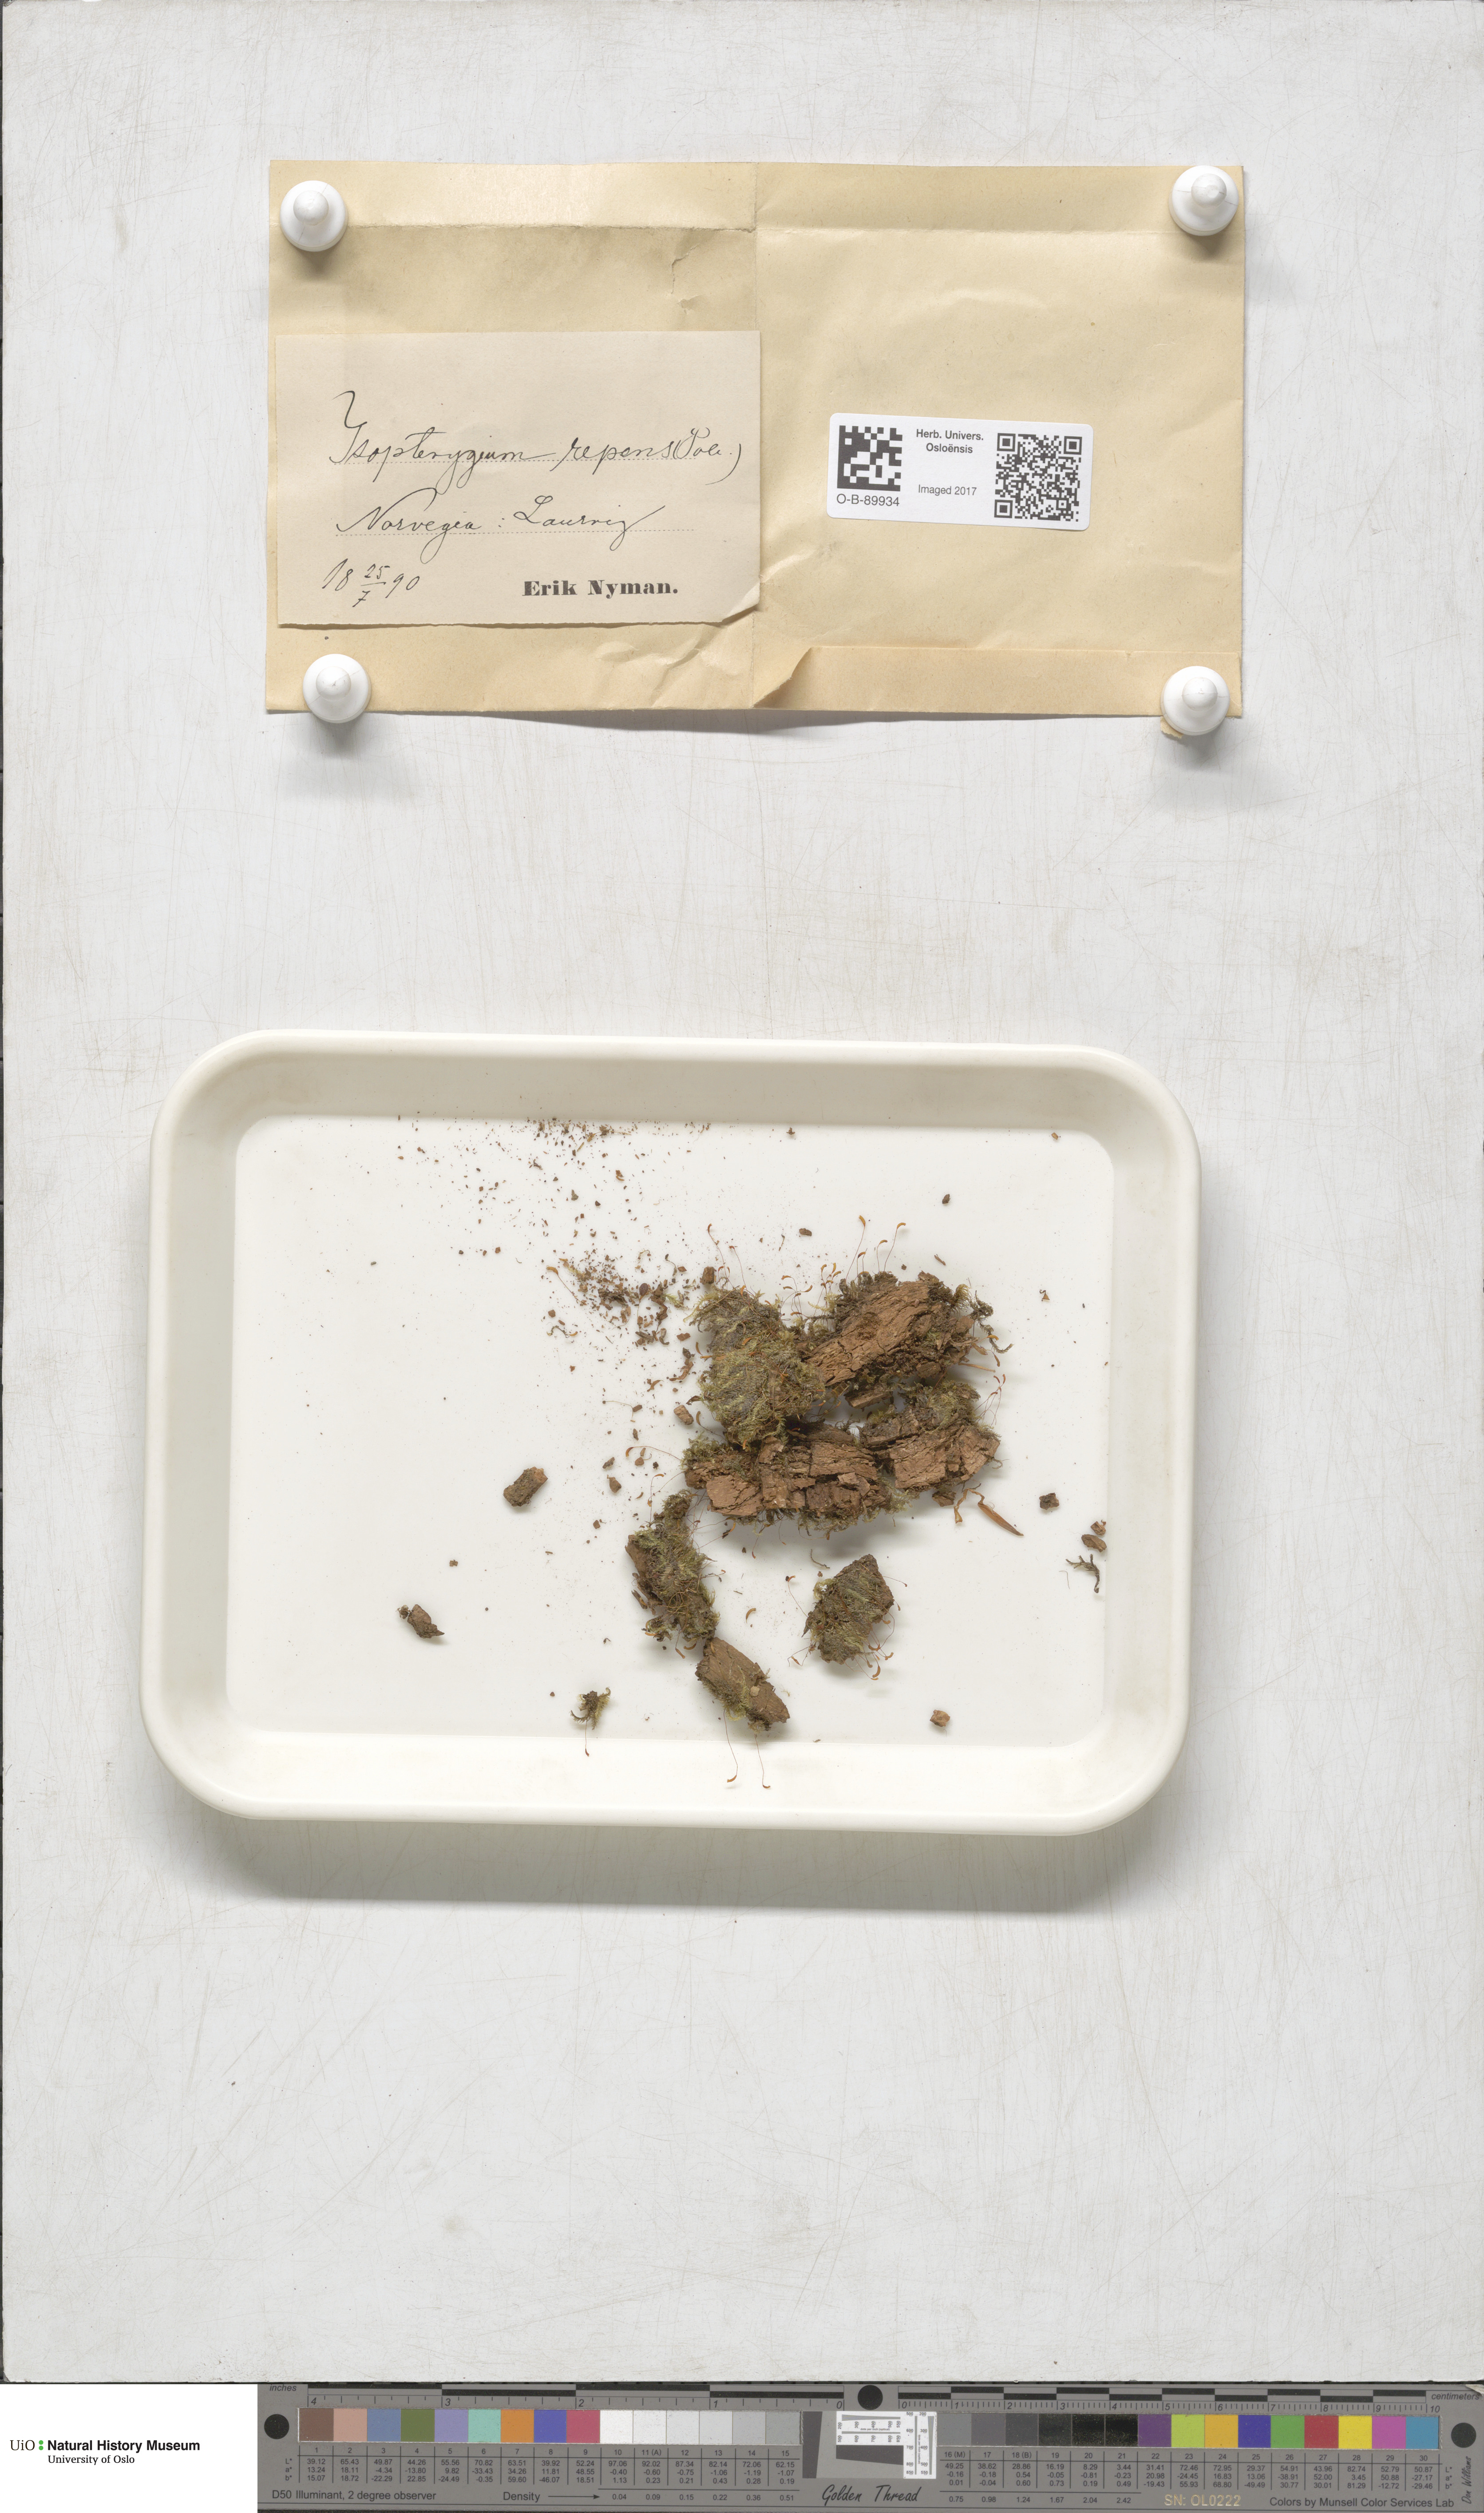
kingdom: Plantae
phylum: Bryophyta
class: Bryopsida
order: Hypnales
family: Plagiotheciaceae
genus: Herzogiella
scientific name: Herzogiella seligeri
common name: Silesian feather-moss
